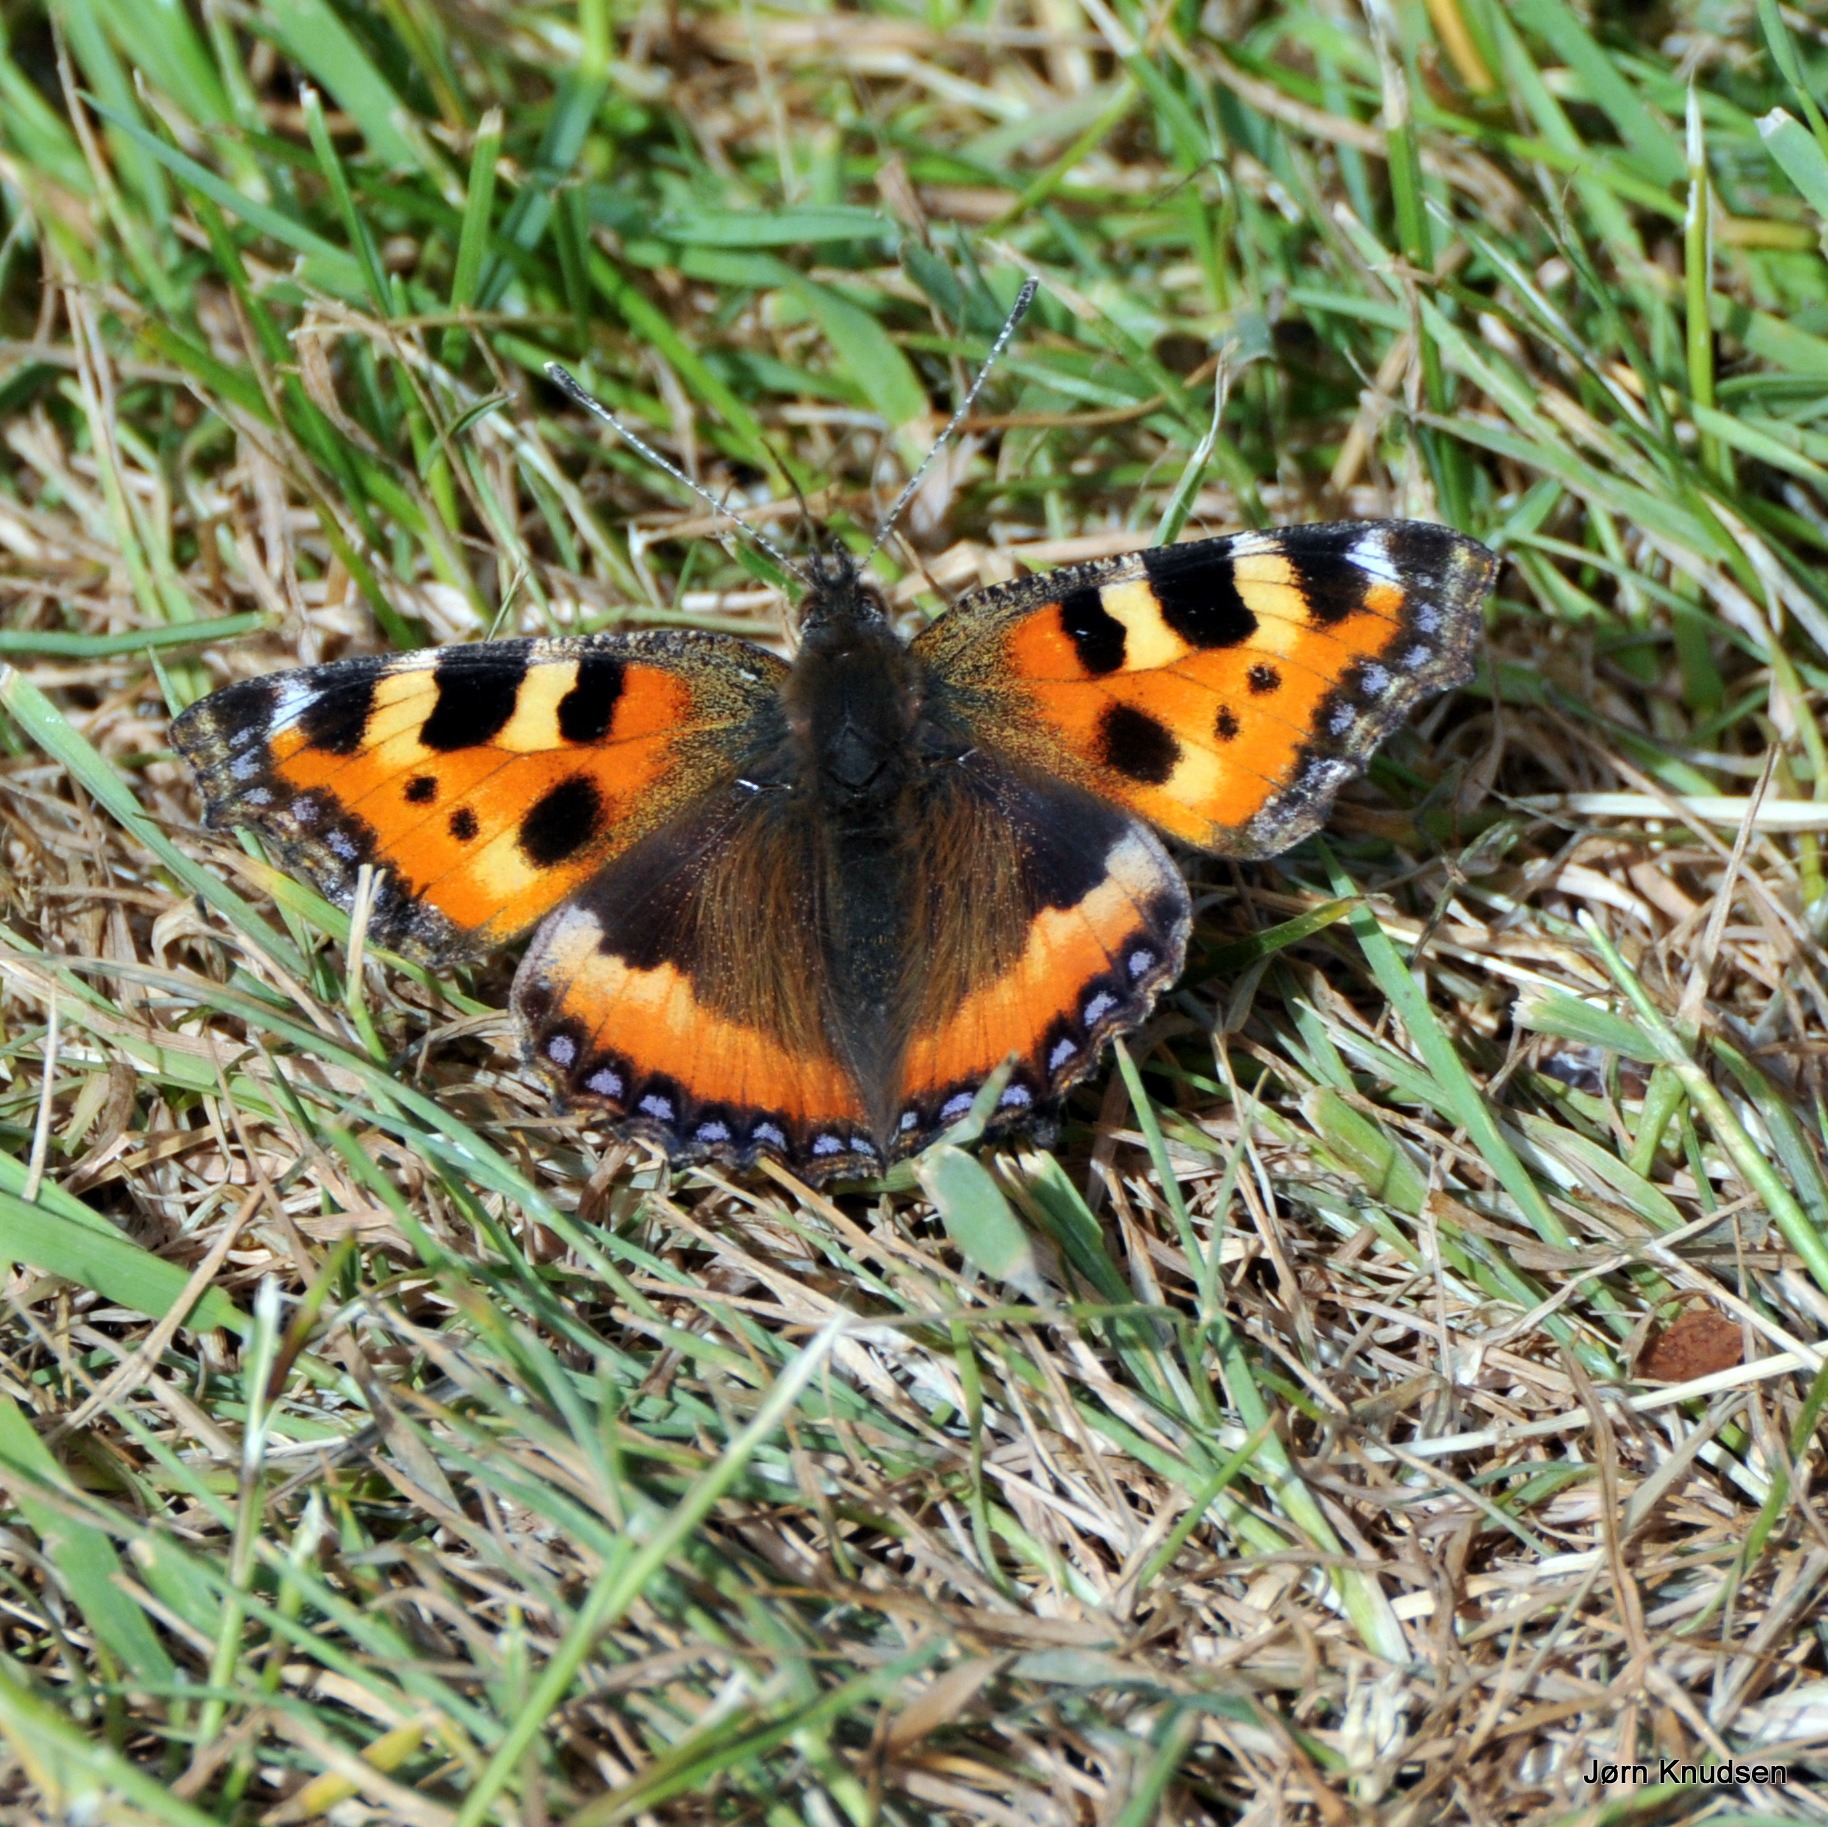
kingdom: Animalia
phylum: Arthropoda
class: Insecta
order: Lepidoptera
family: Nymphalidae
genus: Aglais
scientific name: Aglais urticae
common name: Nældens takvinge
